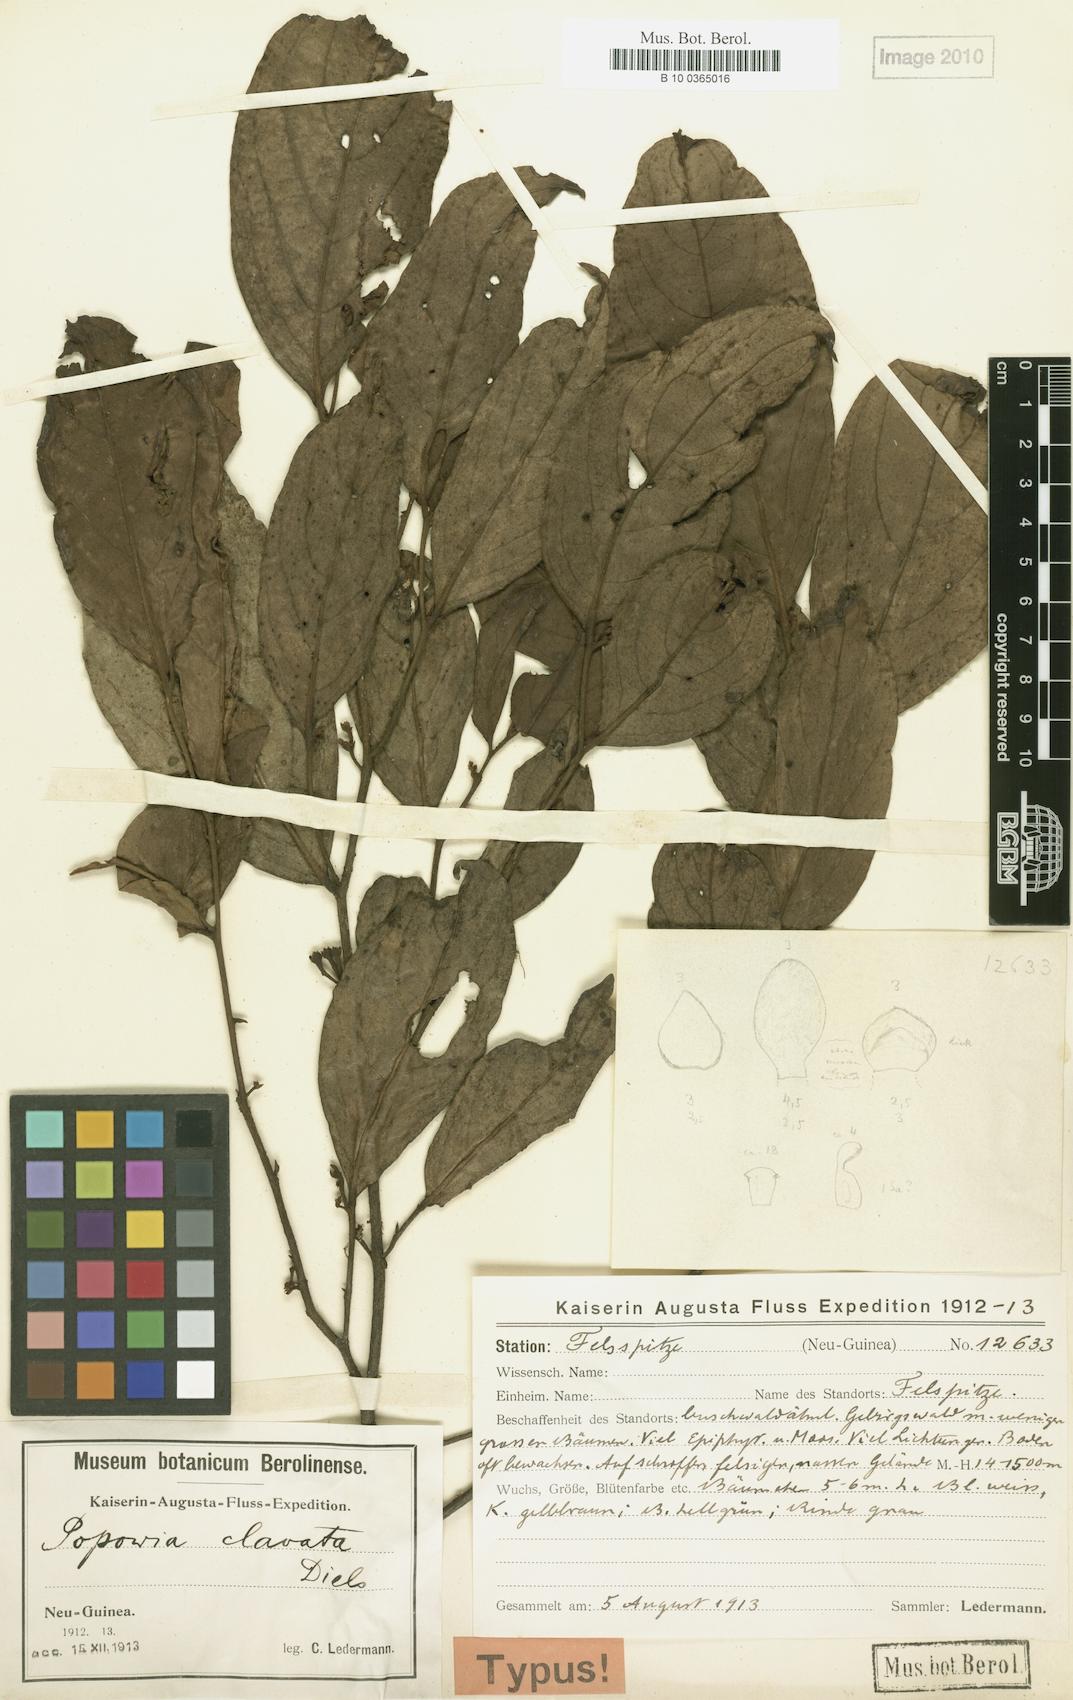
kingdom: Plantae
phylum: Tracheophyta
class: Magnoliopsida
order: Magnoliales
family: Annonaceae
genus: Popowia
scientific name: Popowia clavata
